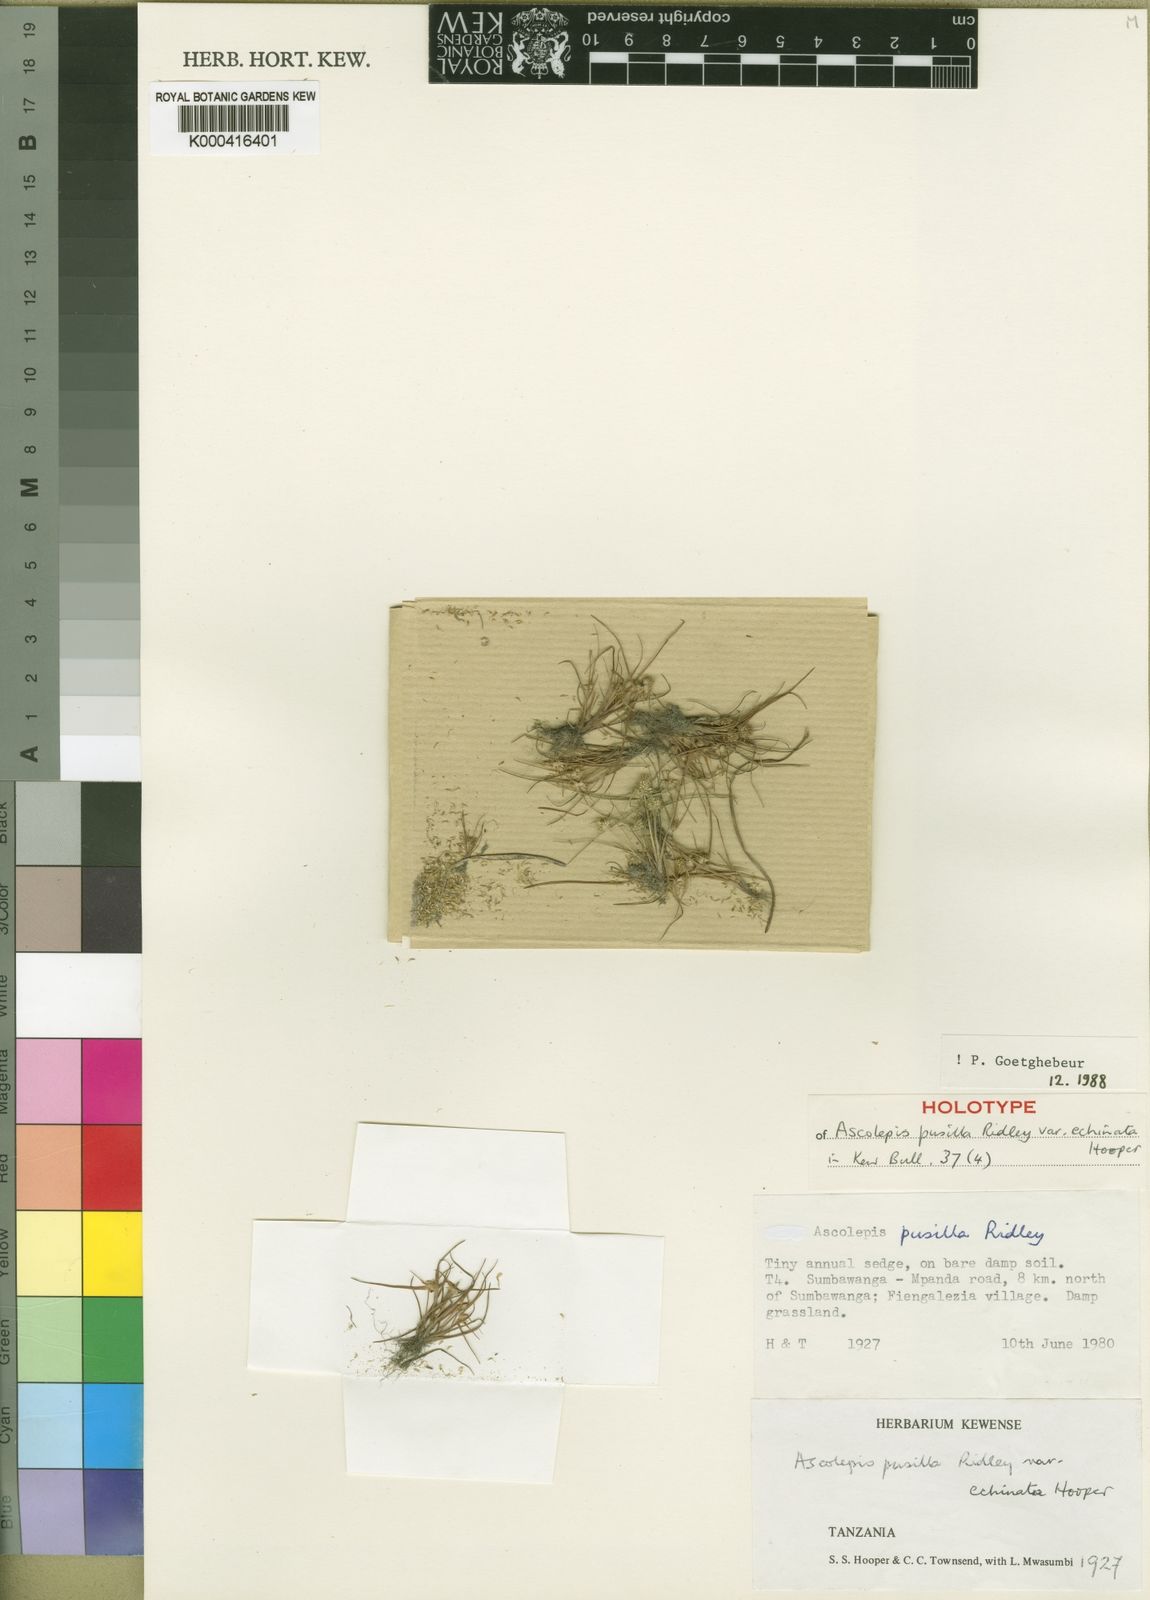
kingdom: Plantae
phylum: Tracheophyta
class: Liliopsida
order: Poales
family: Cyperaceae
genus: Cyperus
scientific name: Cyperus ascopusillus
